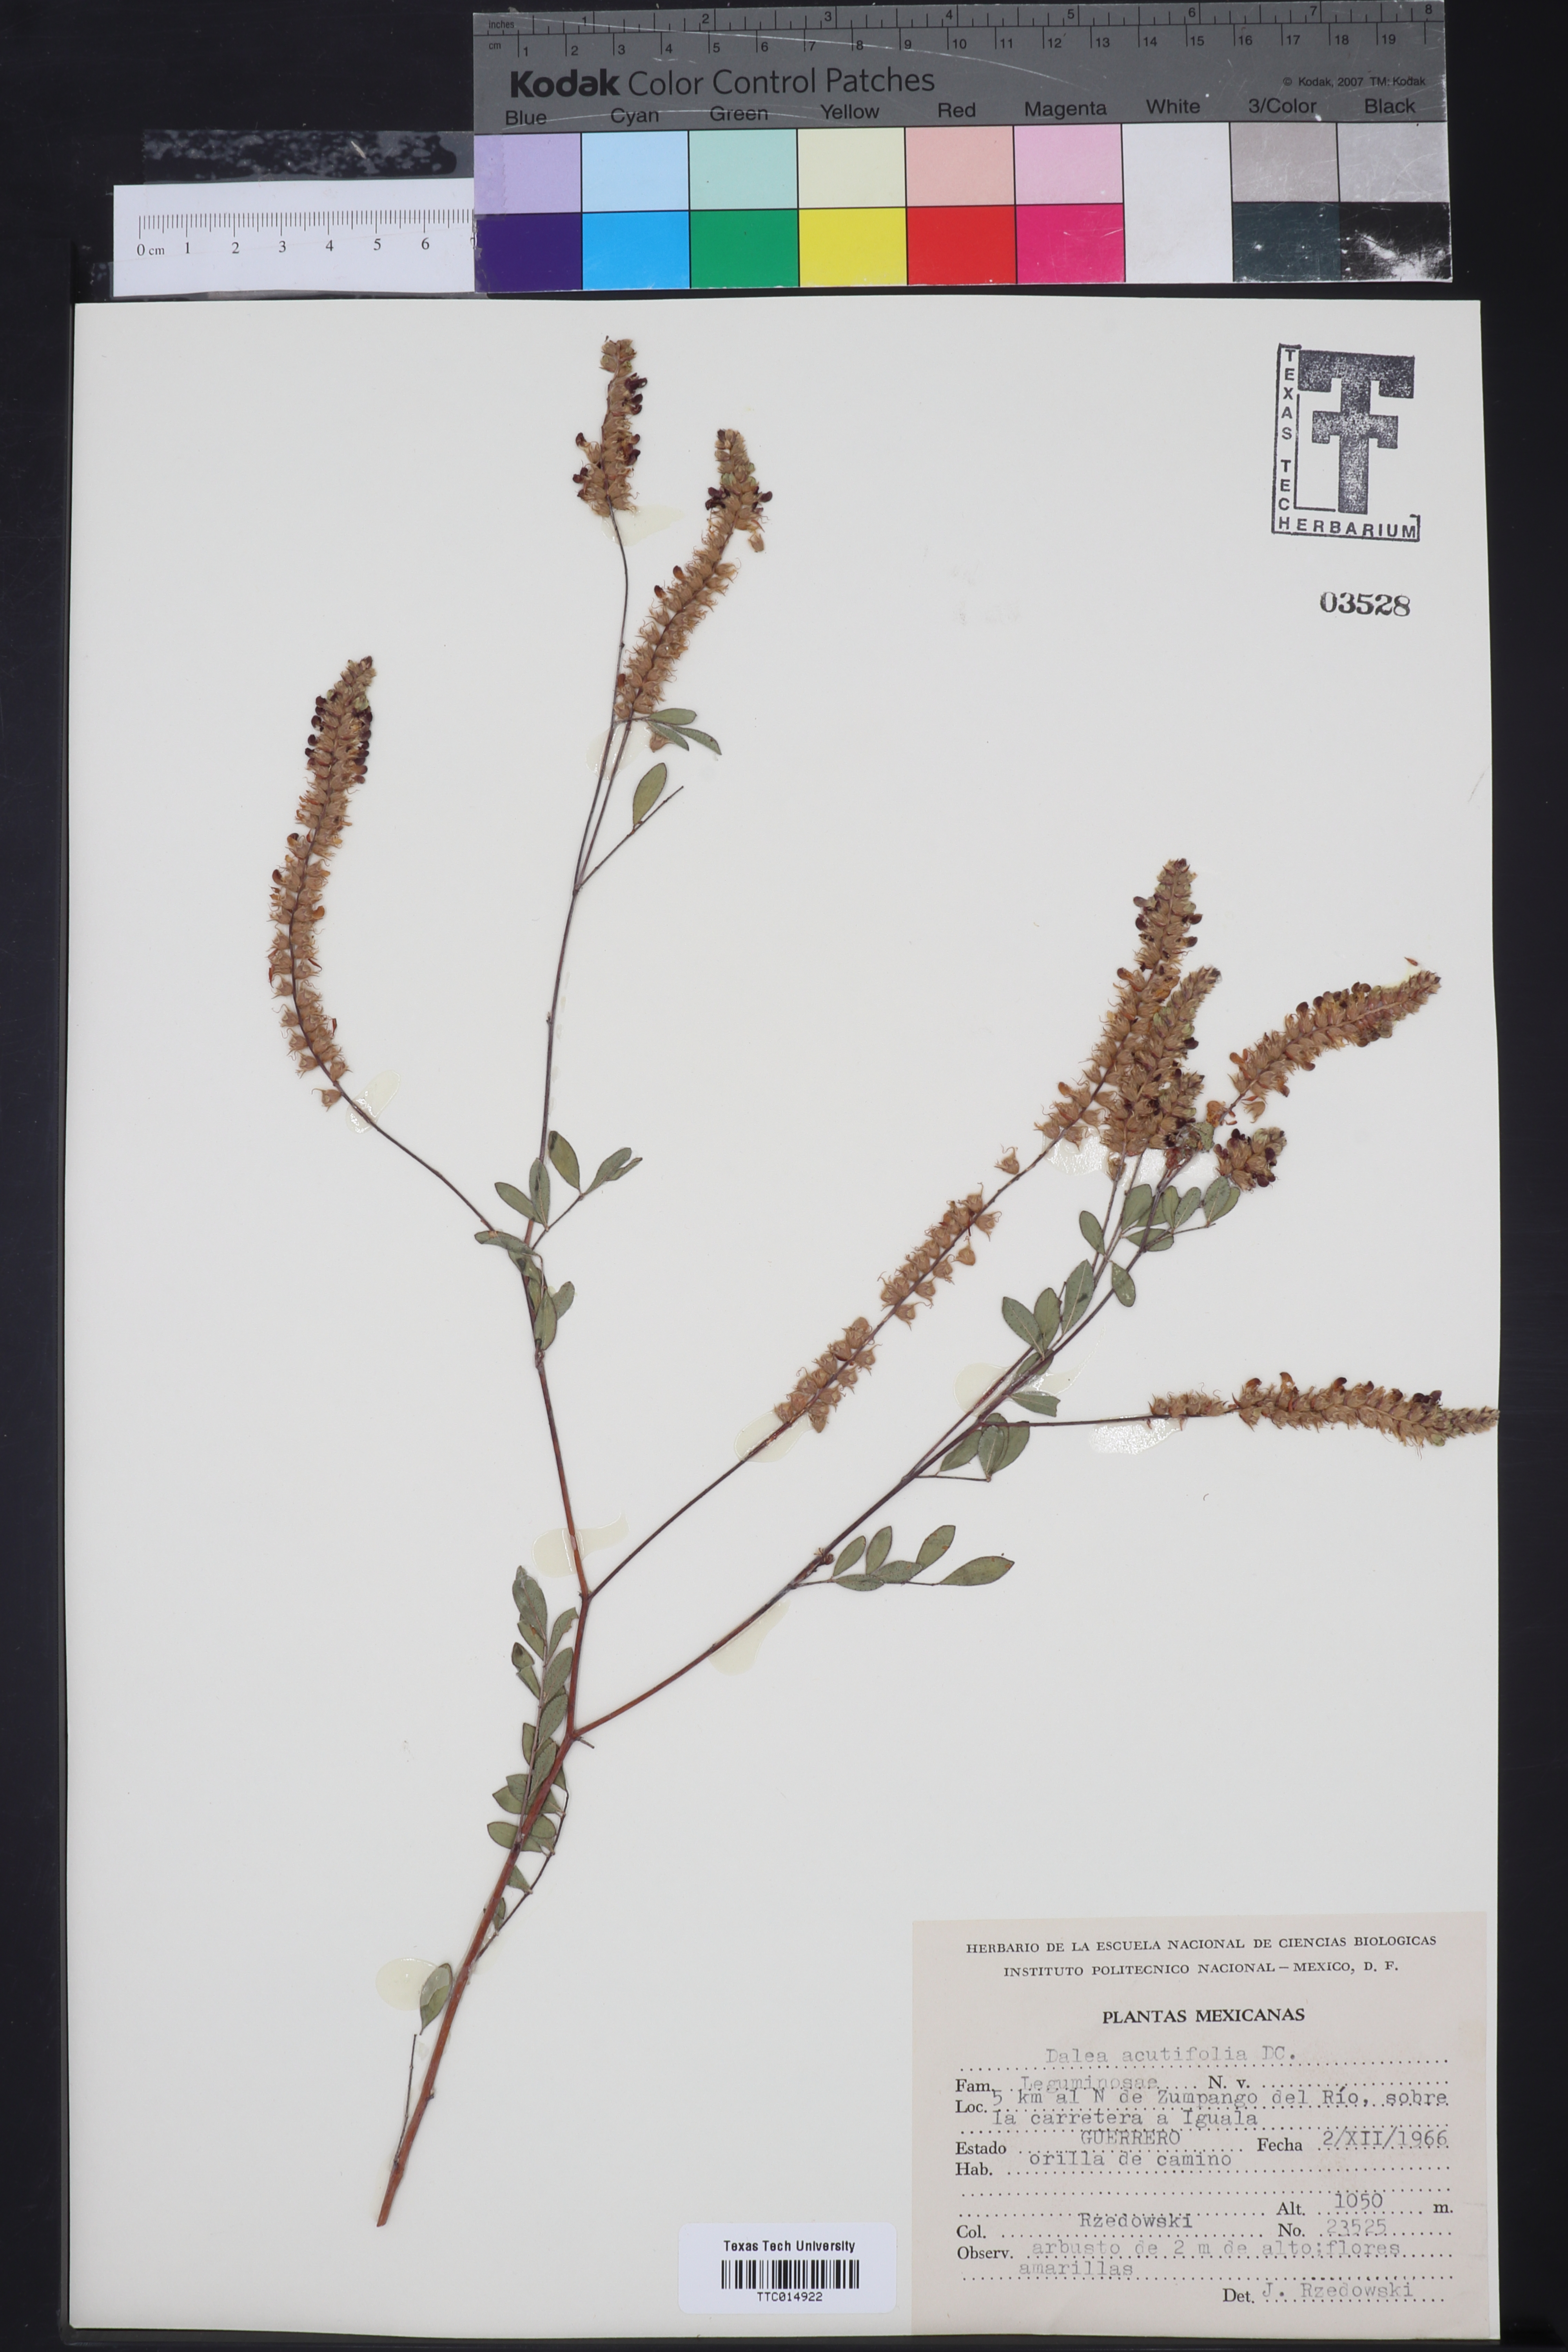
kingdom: Plantae
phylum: Tracheophyta
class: Magnoliopsida
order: Fabales
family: Fabaceae
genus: Dalea
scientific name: Dalea cliffortiana
